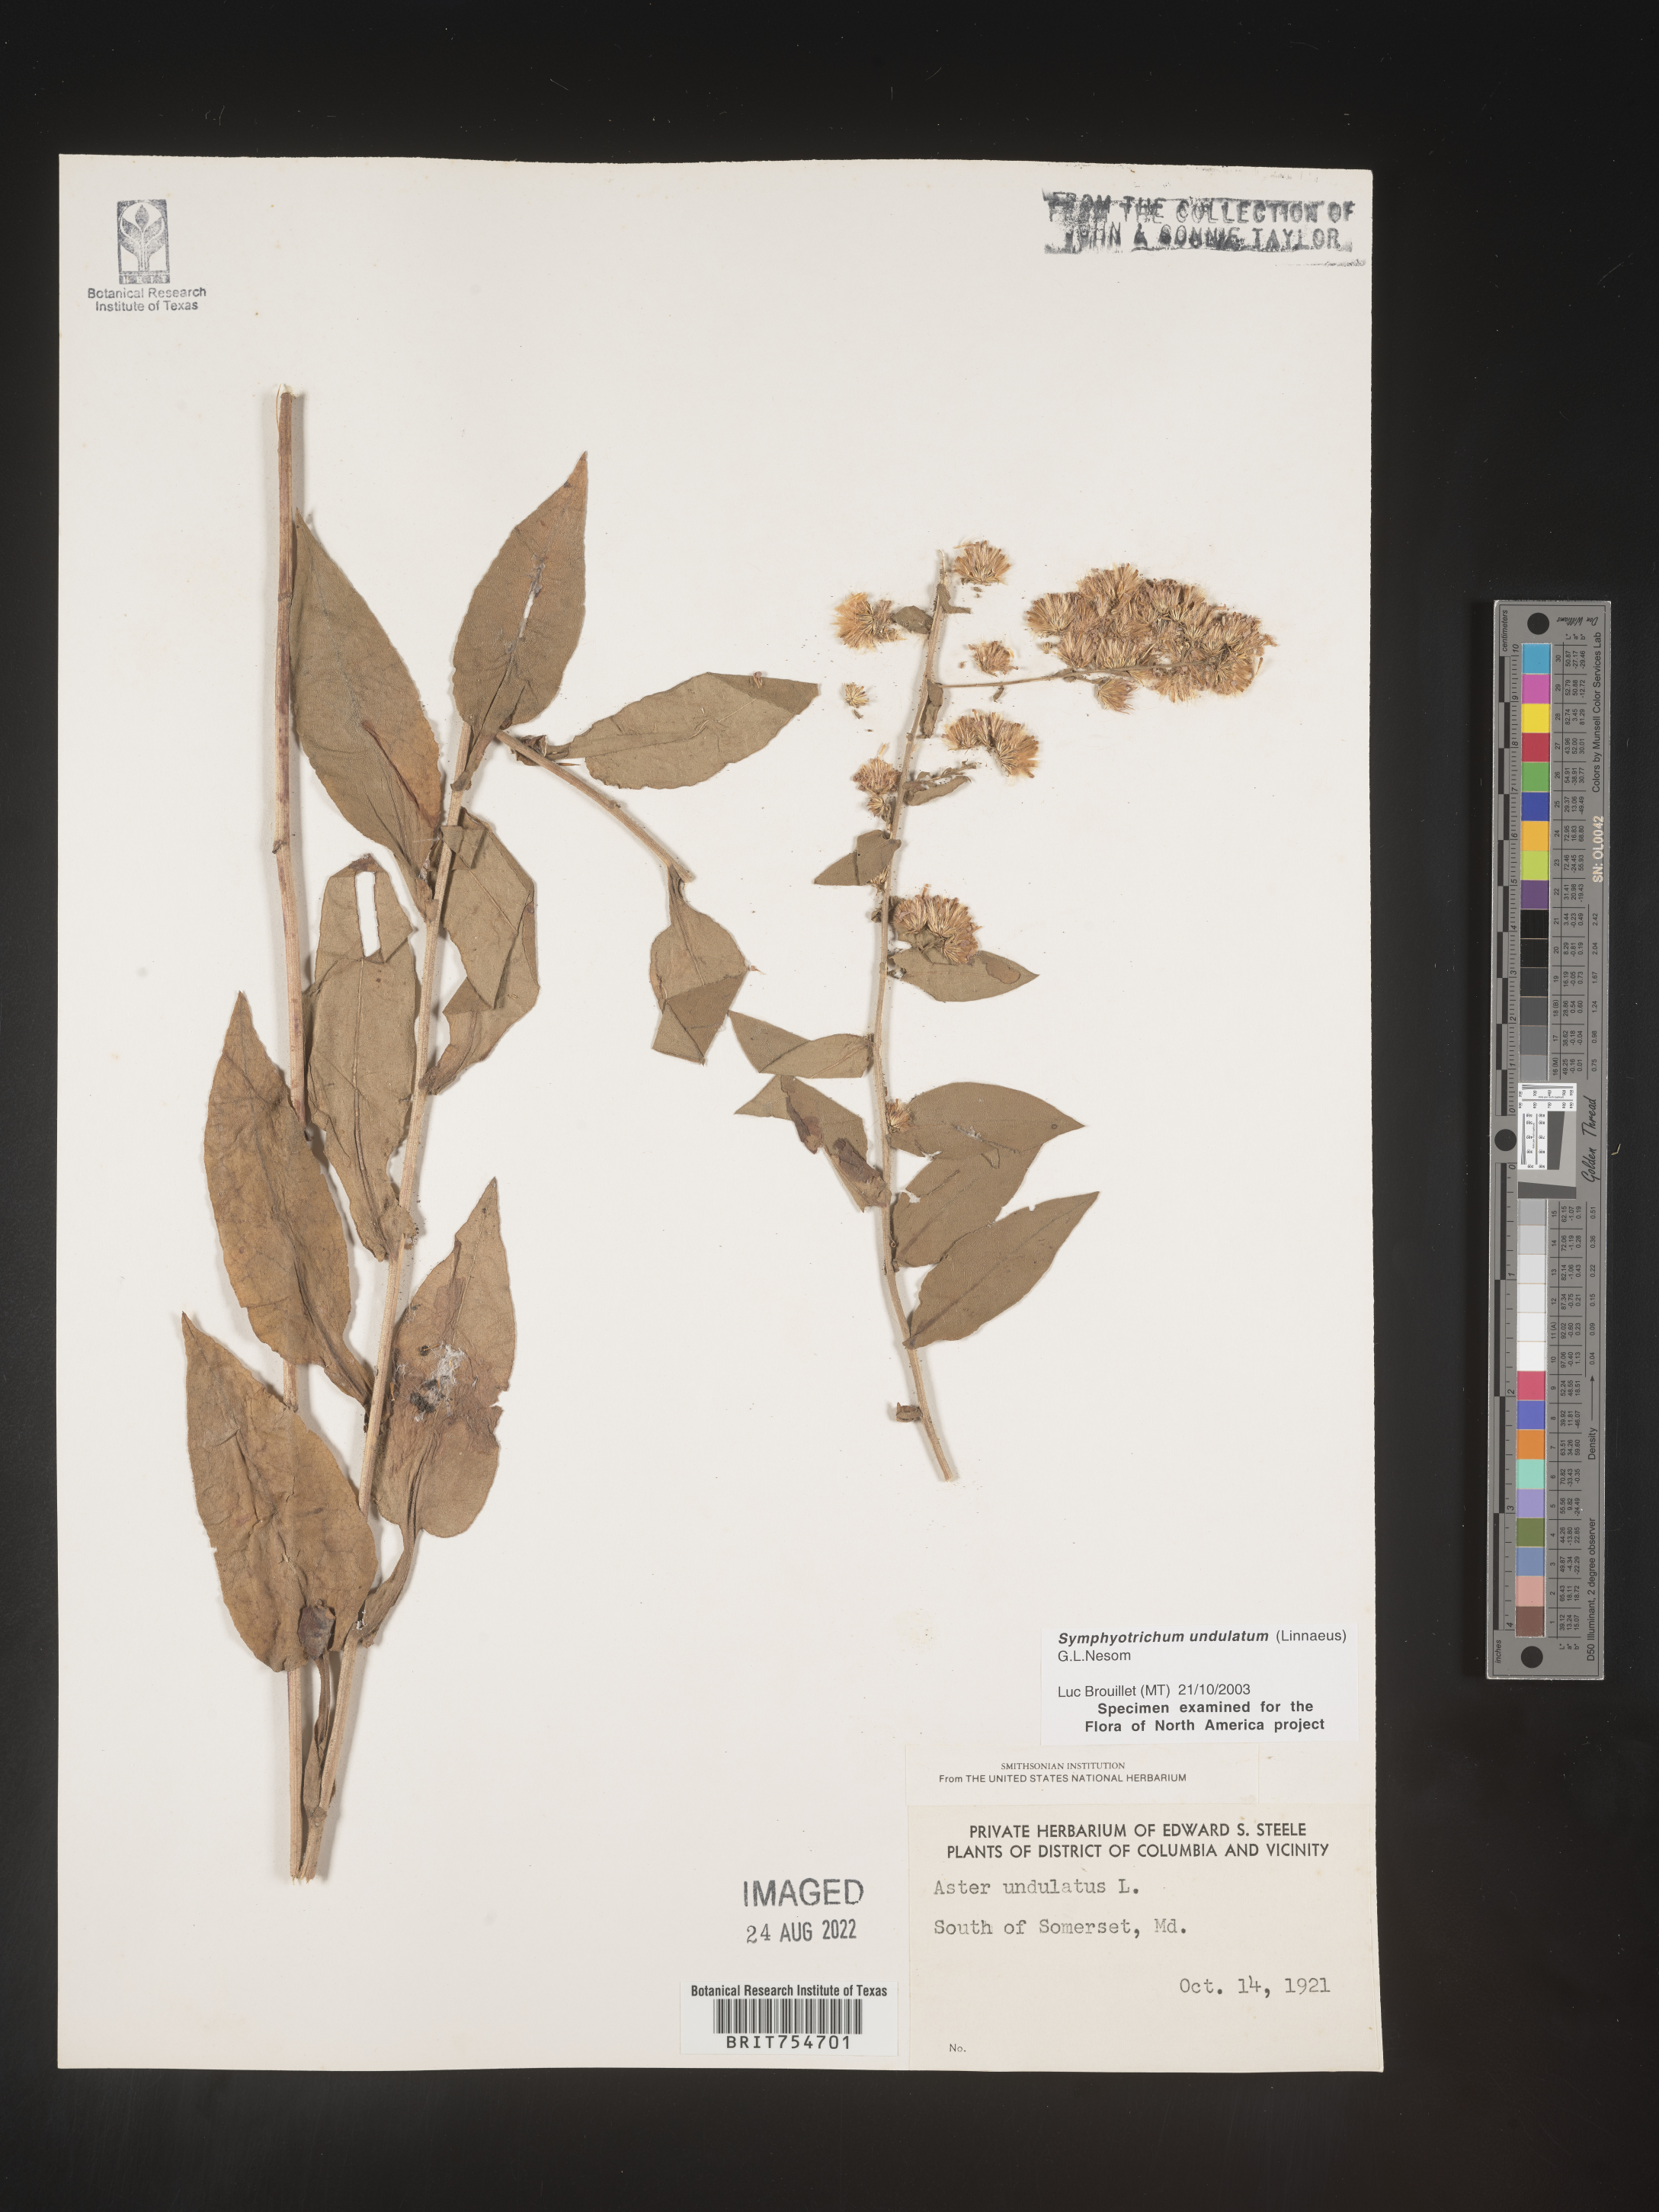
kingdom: Plantae
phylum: Tracheophyta
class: Magnoliopsida
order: Asterales
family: Asteraceae
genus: Symphyotrichum
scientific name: Symphyotrichum undulatum
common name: Clasping heart-leaf aster
